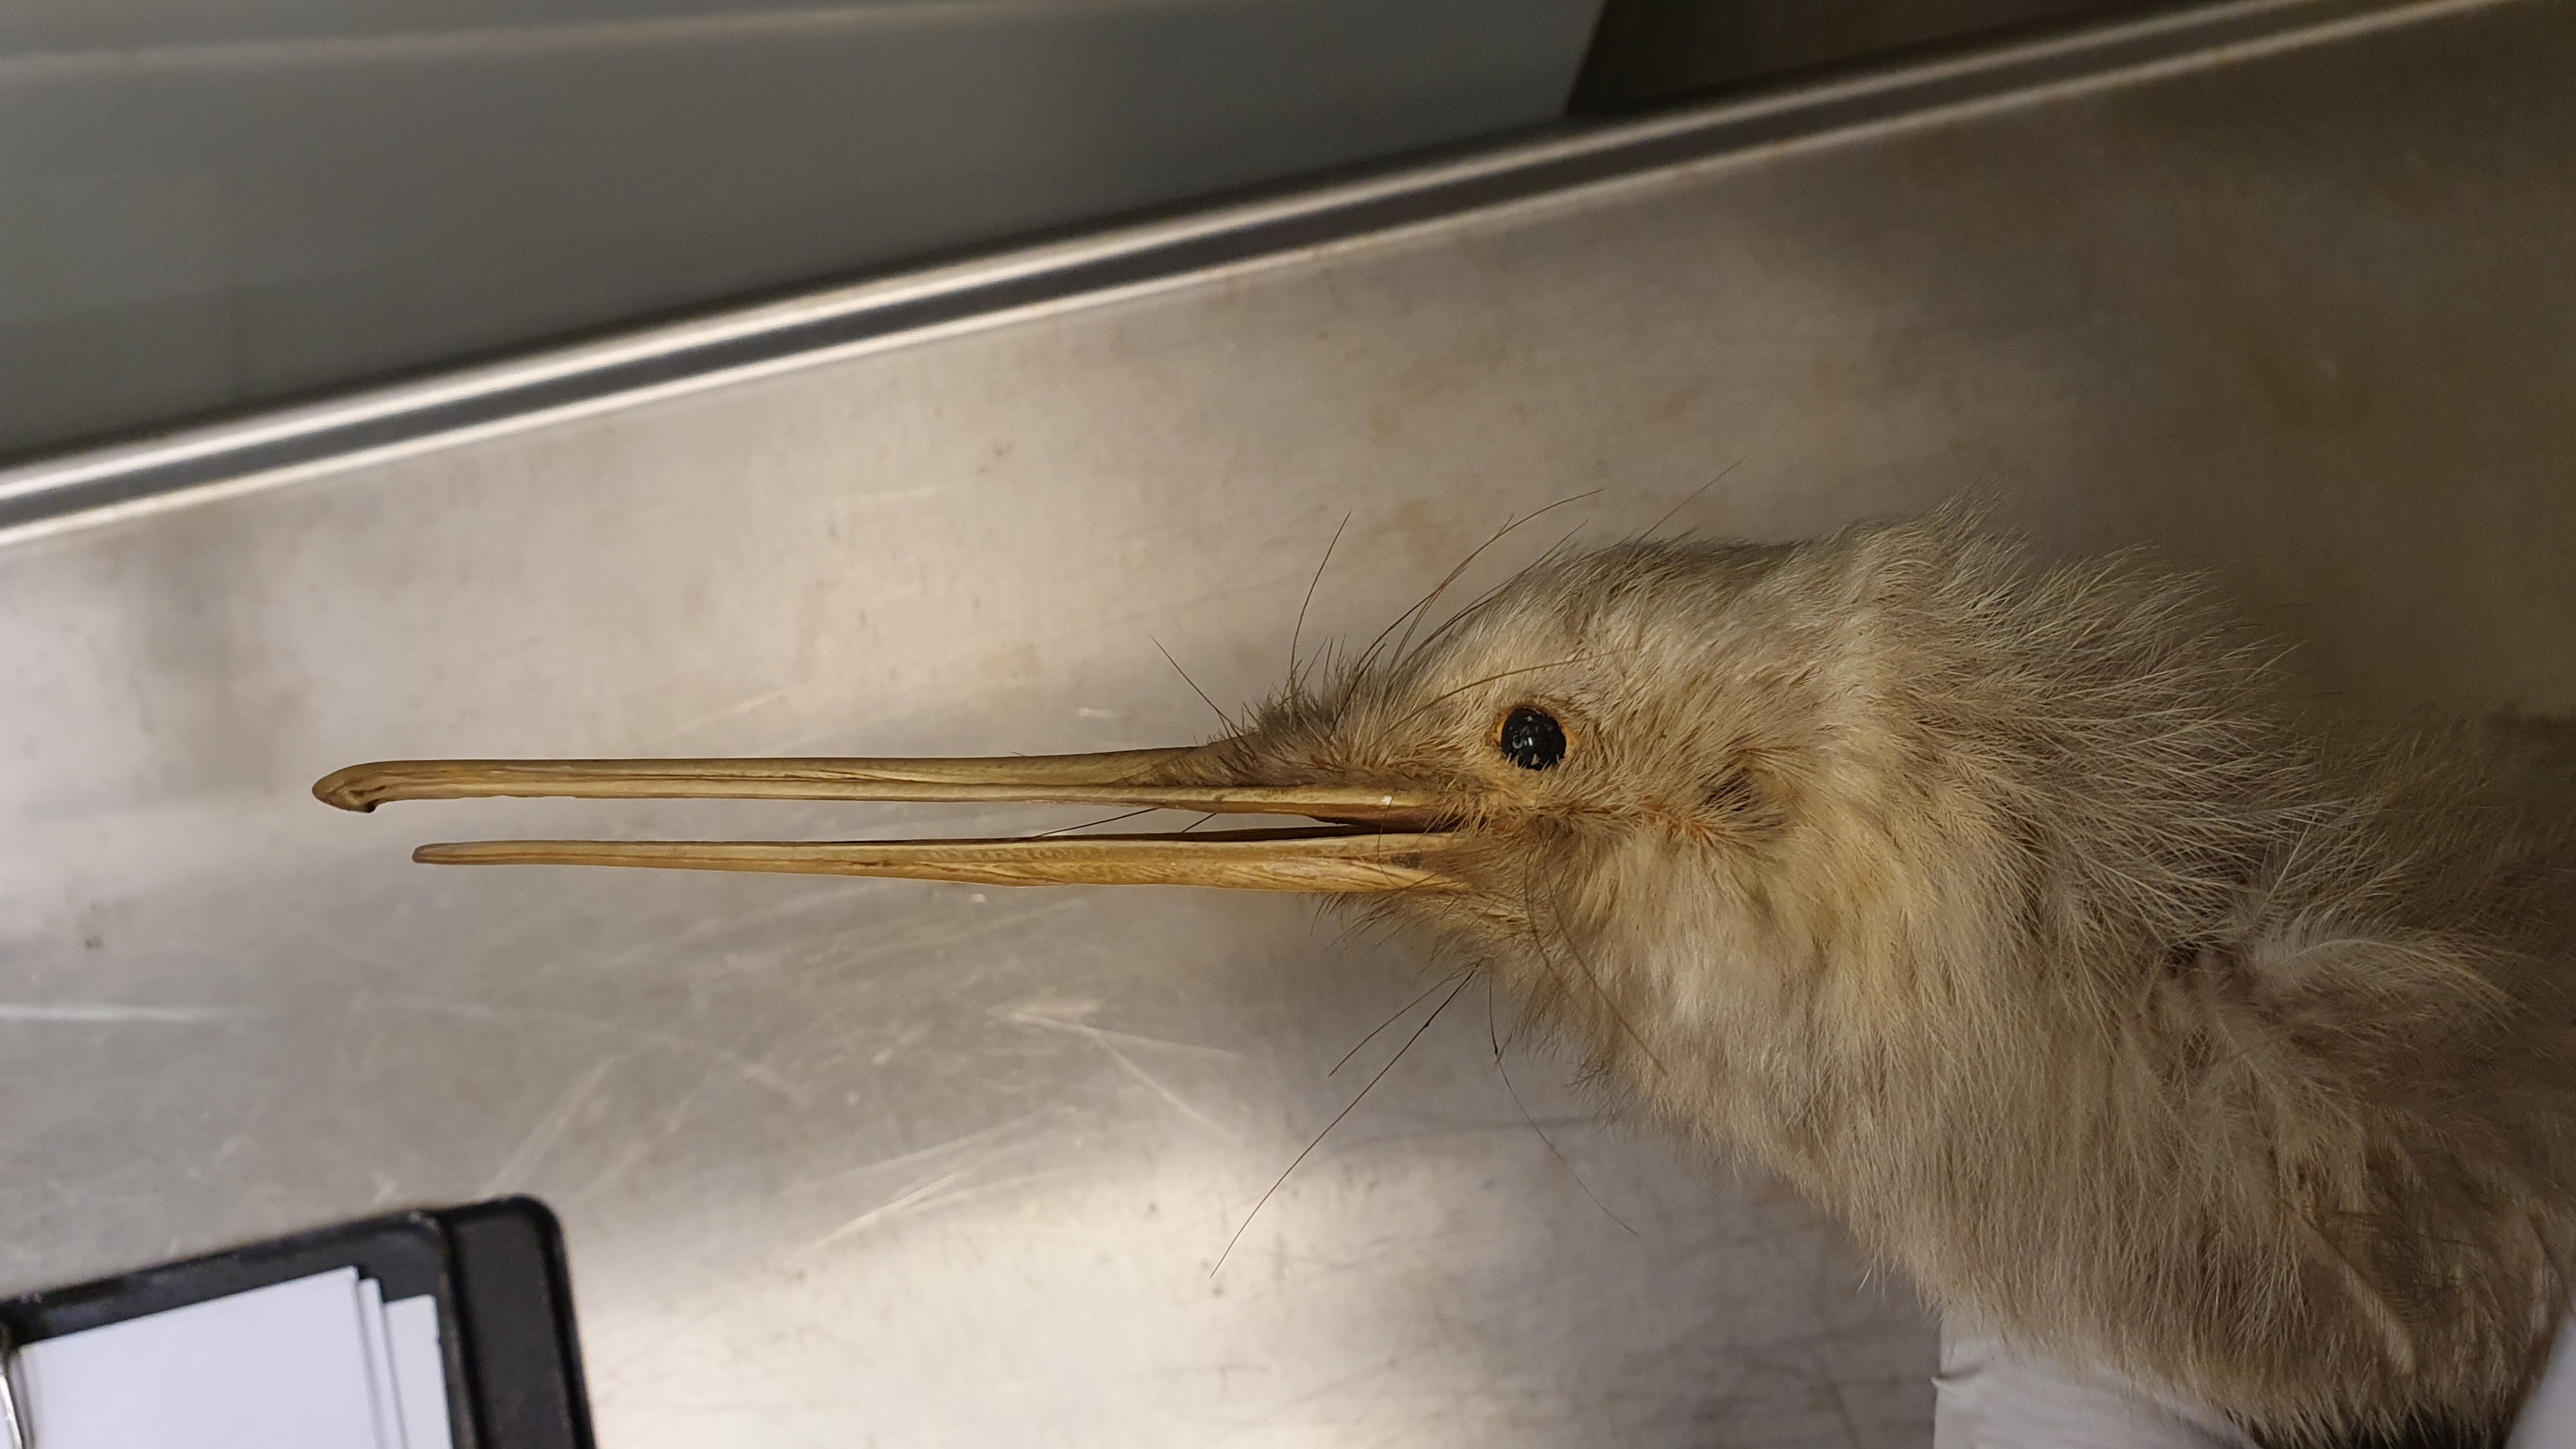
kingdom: Animalia
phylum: Chordata
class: Aves
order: Apterygiformes
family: Apterygidae
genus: Apteryx
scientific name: Apteryx owenii
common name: Little spotted kiwi
